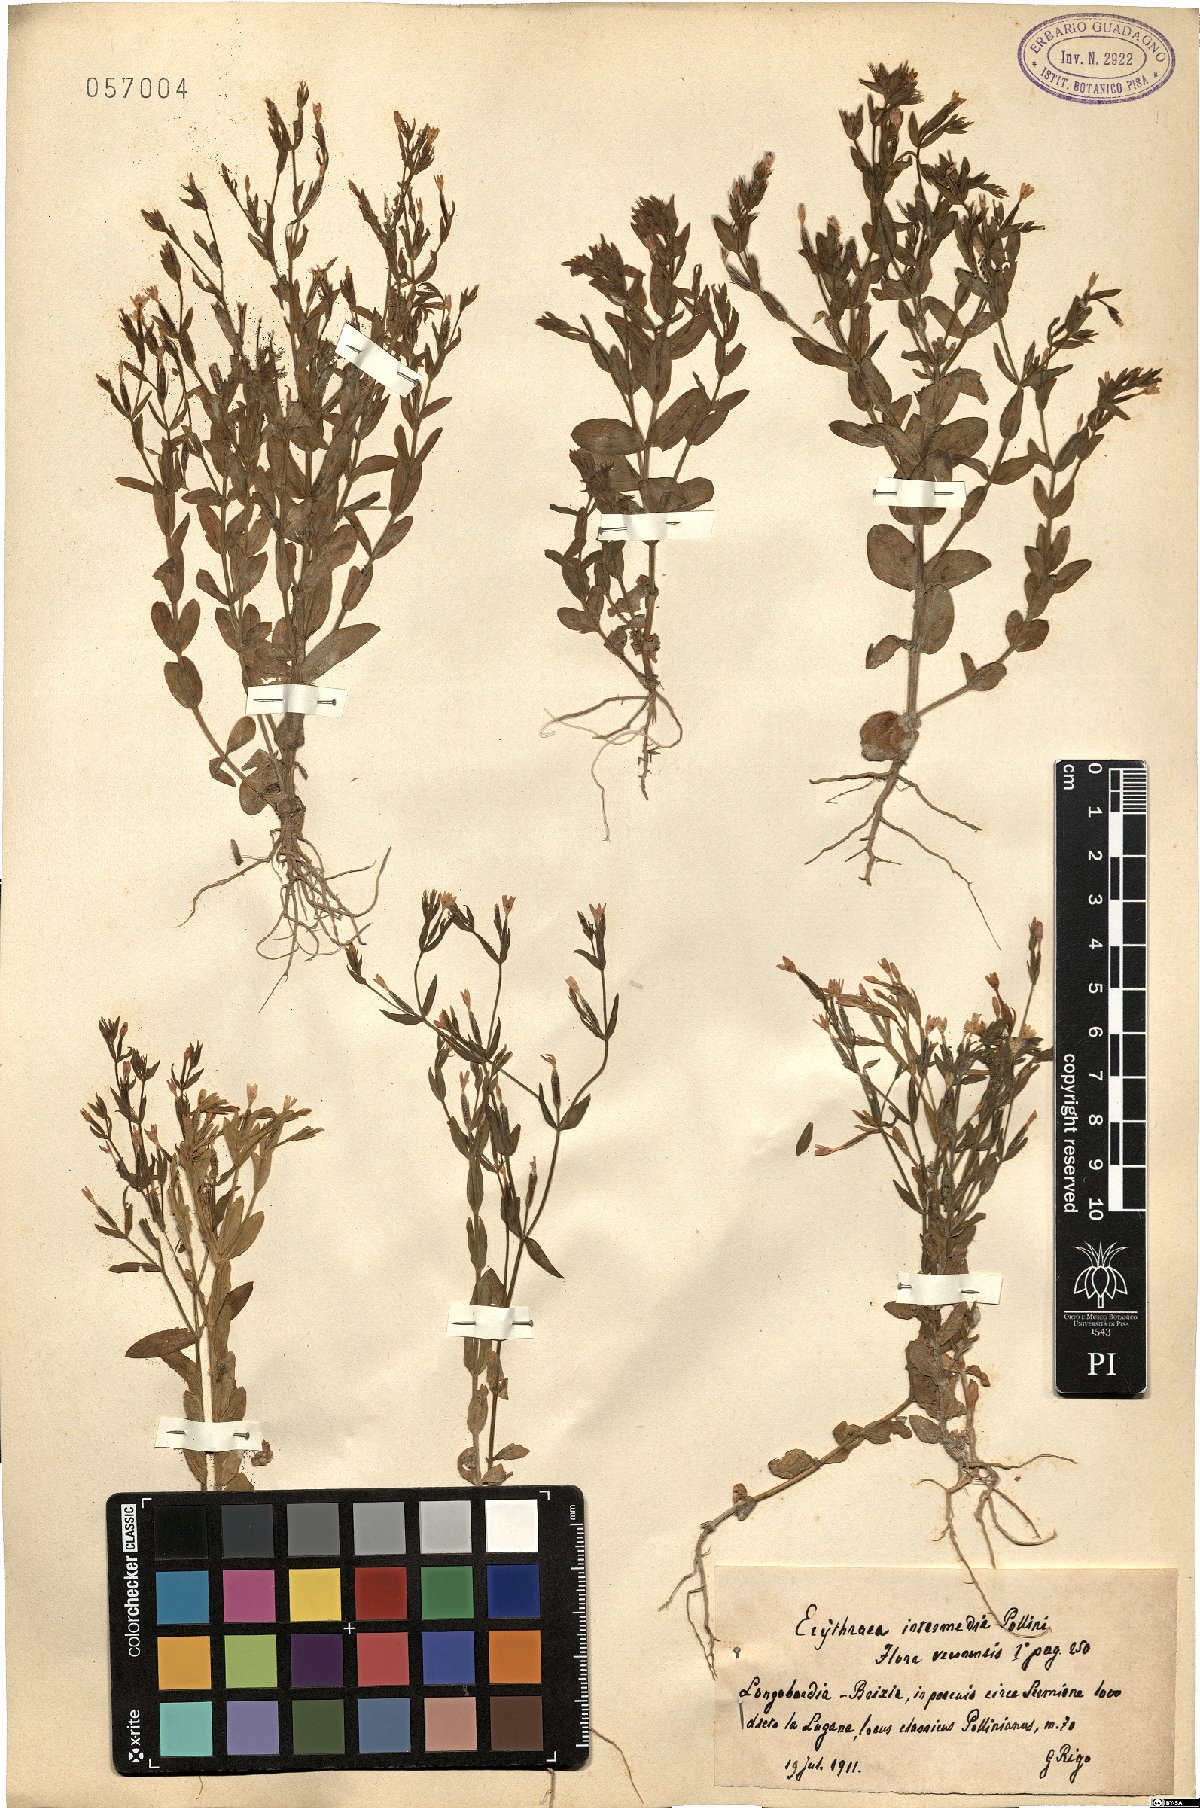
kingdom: Plantae
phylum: Tracheophyta
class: Magnoliopsida
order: Gentianales
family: Gentianaceae
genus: Centaurium
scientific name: Centaurium pulchellum
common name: Lesser centaury
